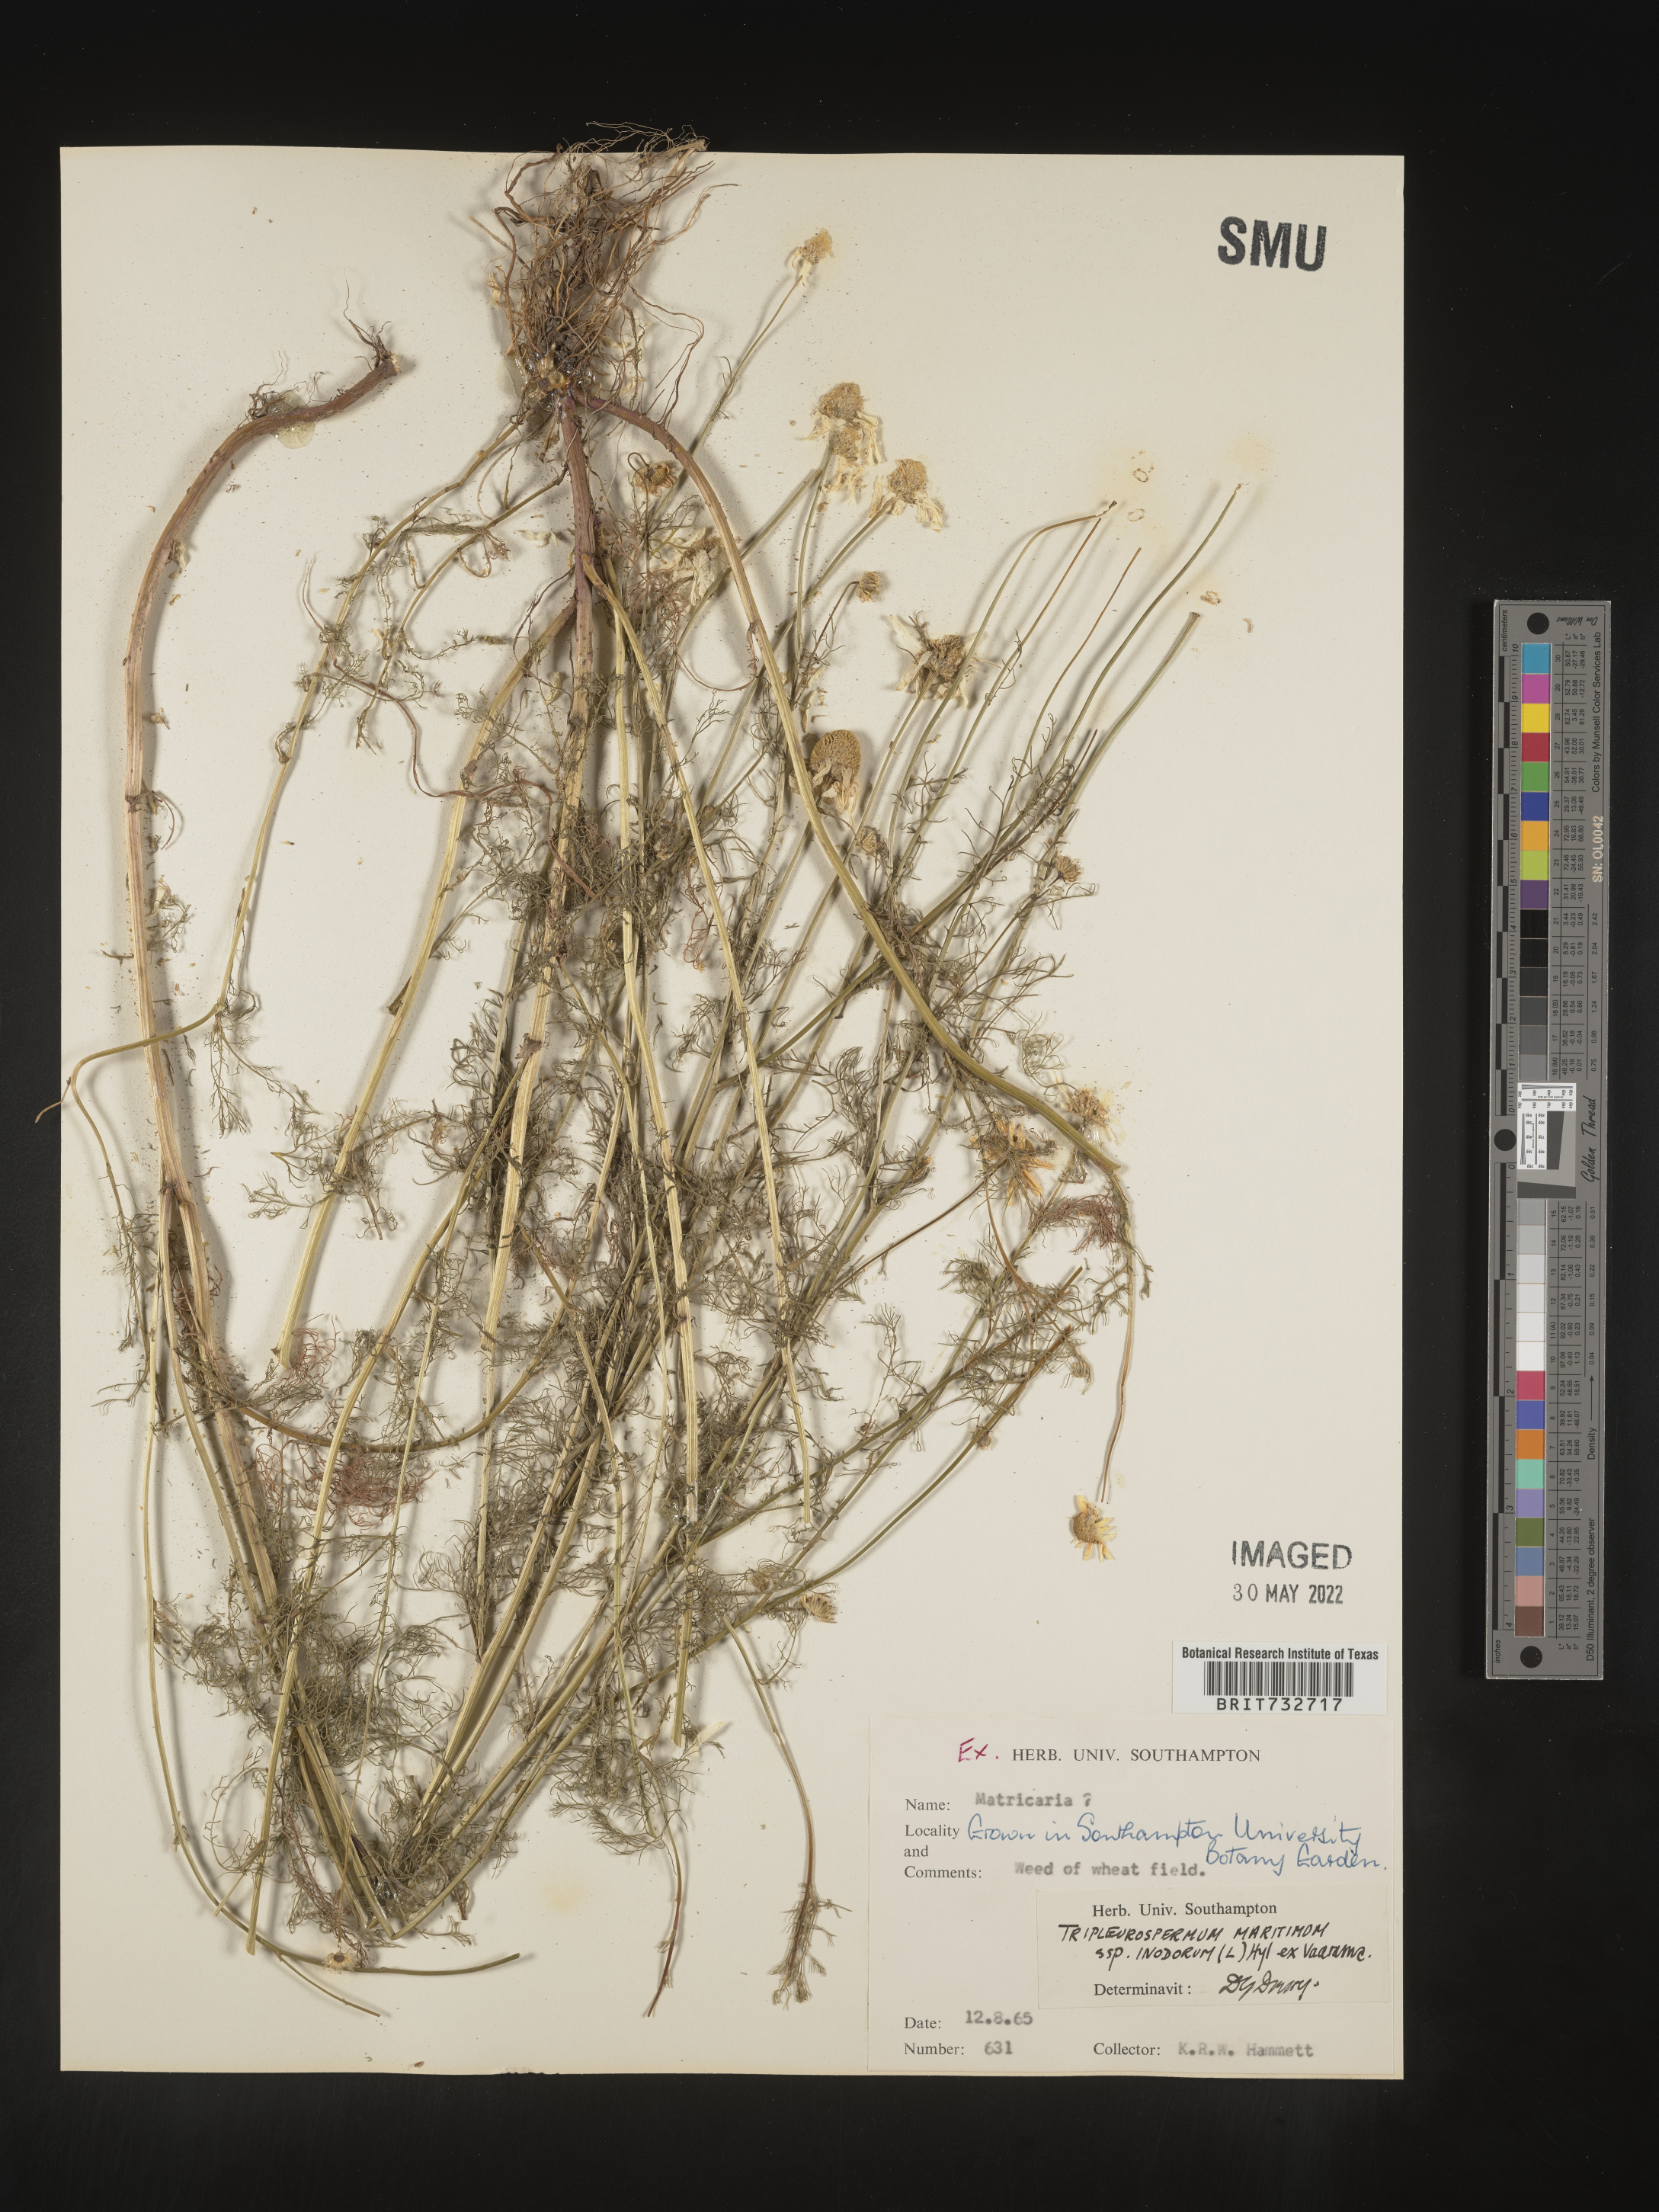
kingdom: Plantae
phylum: Tracheophyta
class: Magnoliopsida
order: Asterales
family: Asteraceae
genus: Matricaria
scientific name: Matricaria
